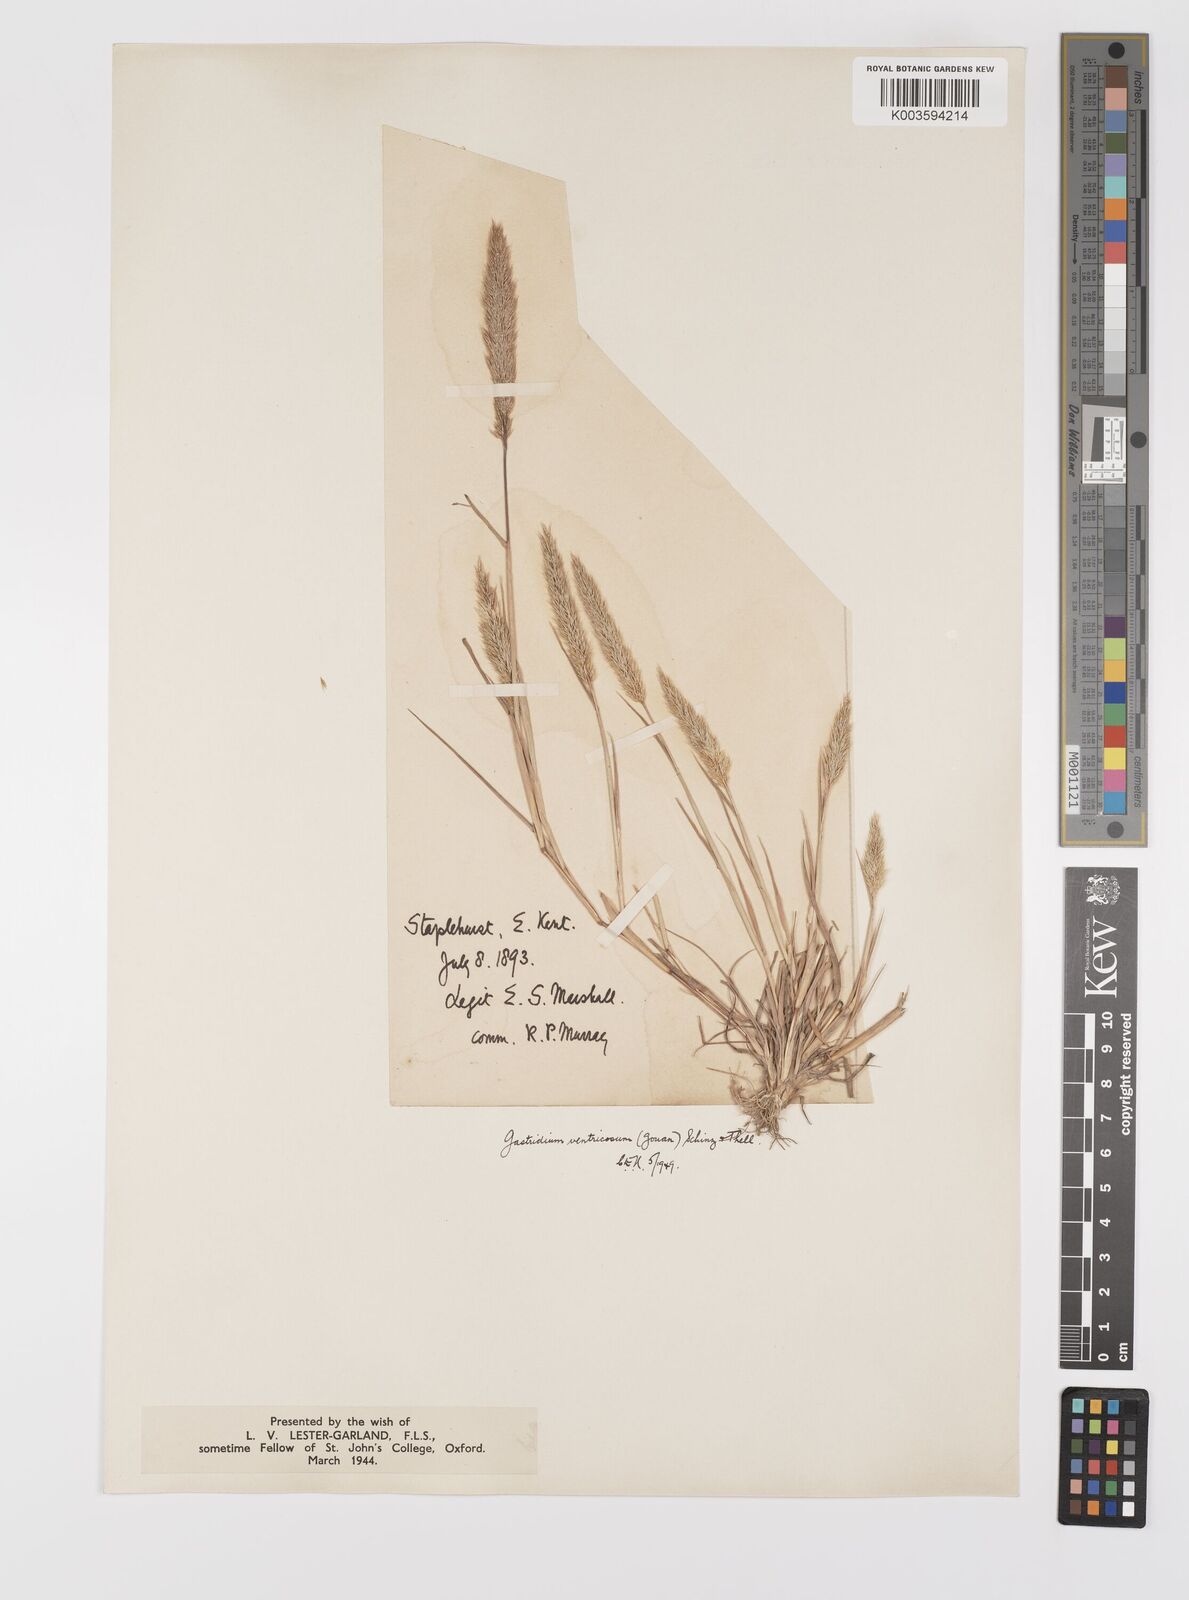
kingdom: Plantae
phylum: Tracheophyta
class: Liliopsida
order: Poales
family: Poaceae
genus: Gastridium
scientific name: Gastridium ventricosum
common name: Nit-grass
